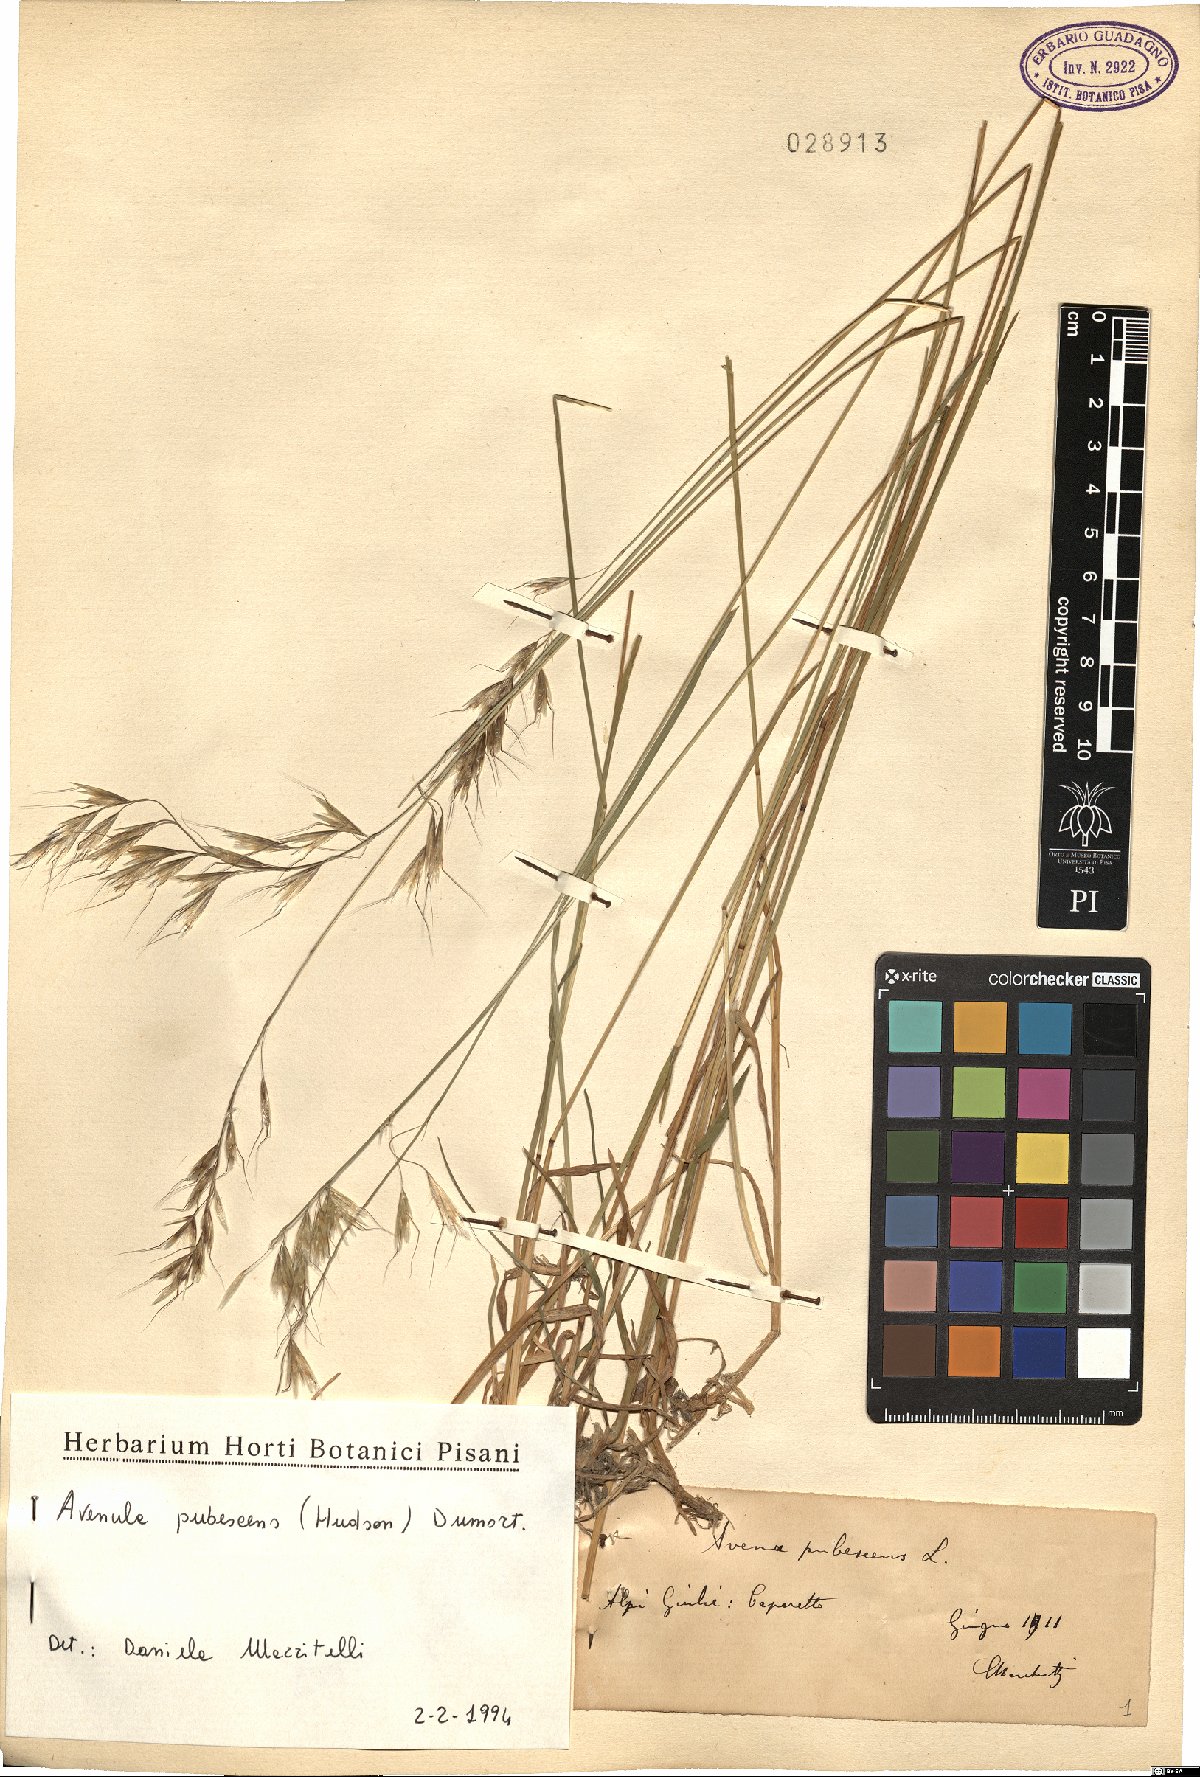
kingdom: Plantae
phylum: Tracheophyta
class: Liliopsida
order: Poales
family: Poaceae
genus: Avenula
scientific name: Avenula pubescens
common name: Downy alpine oatgrass
